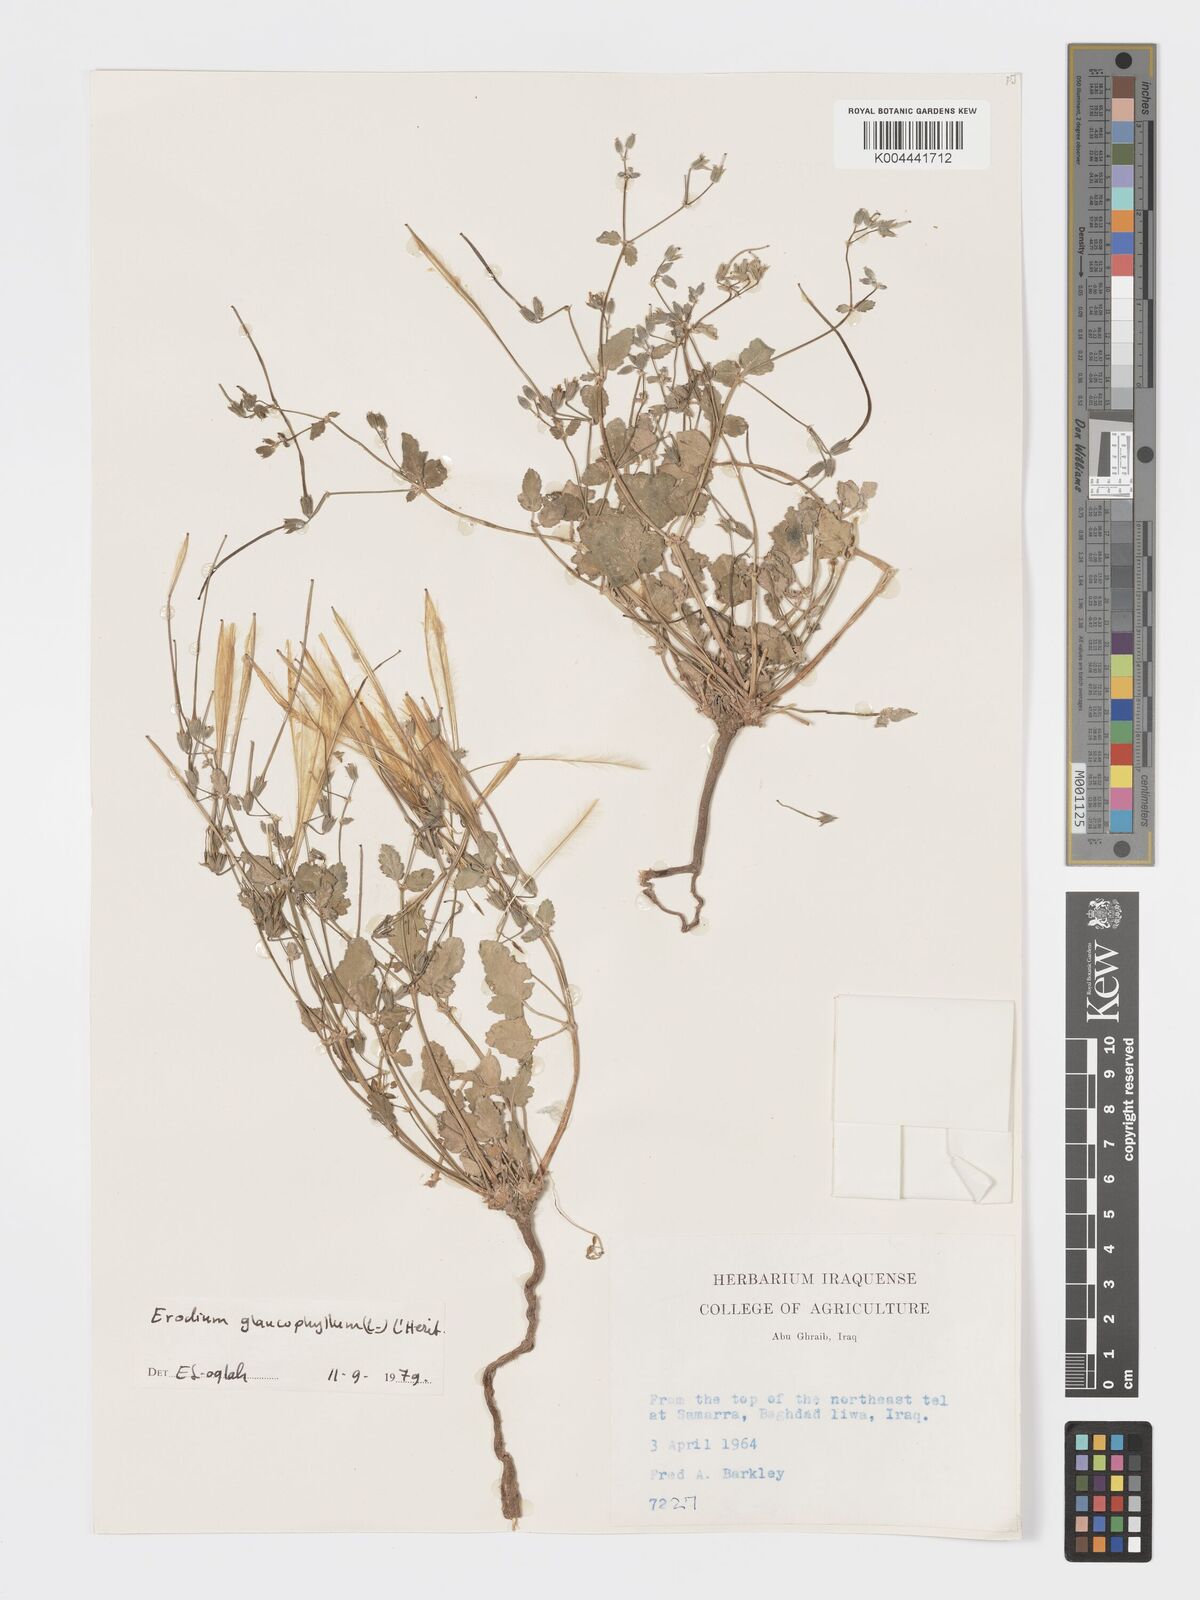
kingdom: Plantae
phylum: Tracheophyta
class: Magnoliopsida
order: Geraniales
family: Geraniaceae
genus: Erodium
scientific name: Erodium glaucophyllum
